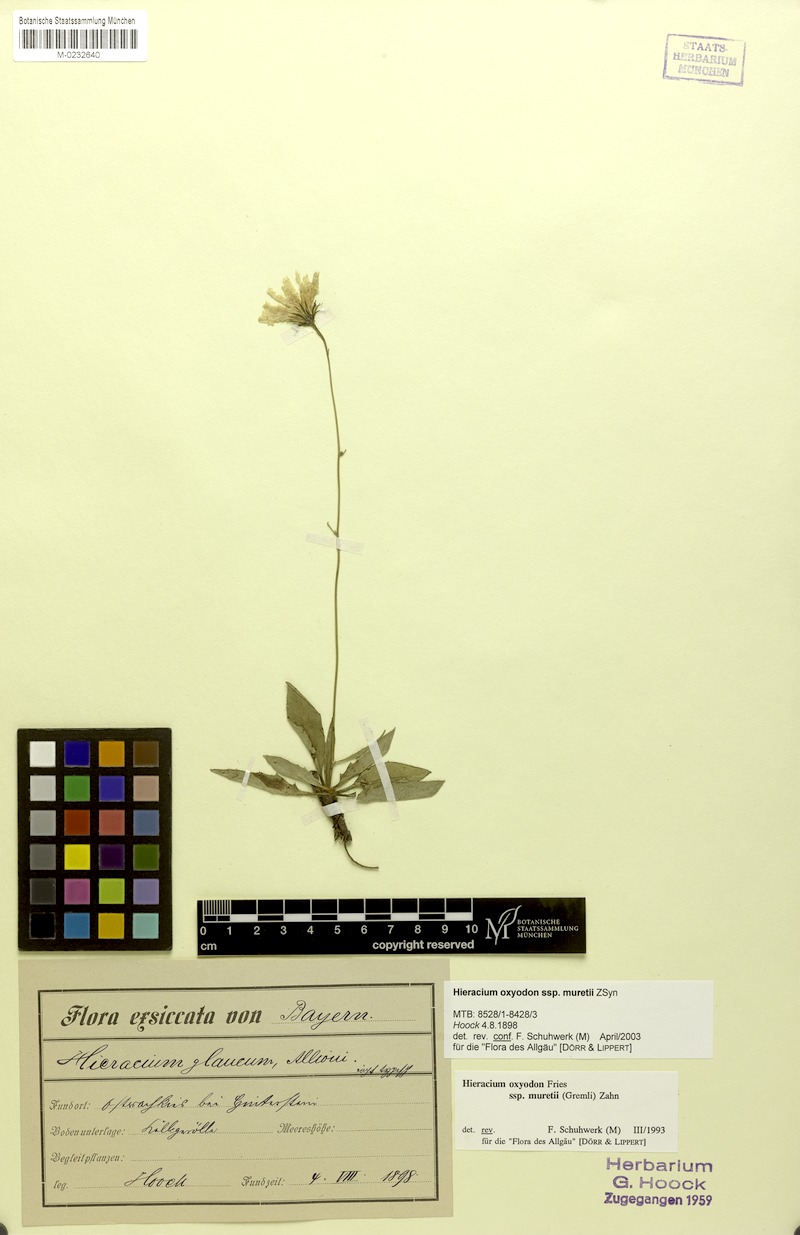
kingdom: Plantae
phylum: Tracheophyta
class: Magnoliopsida
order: Asterales
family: Asteraceae
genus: Hieracium
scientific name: Hieracium oxyodon
